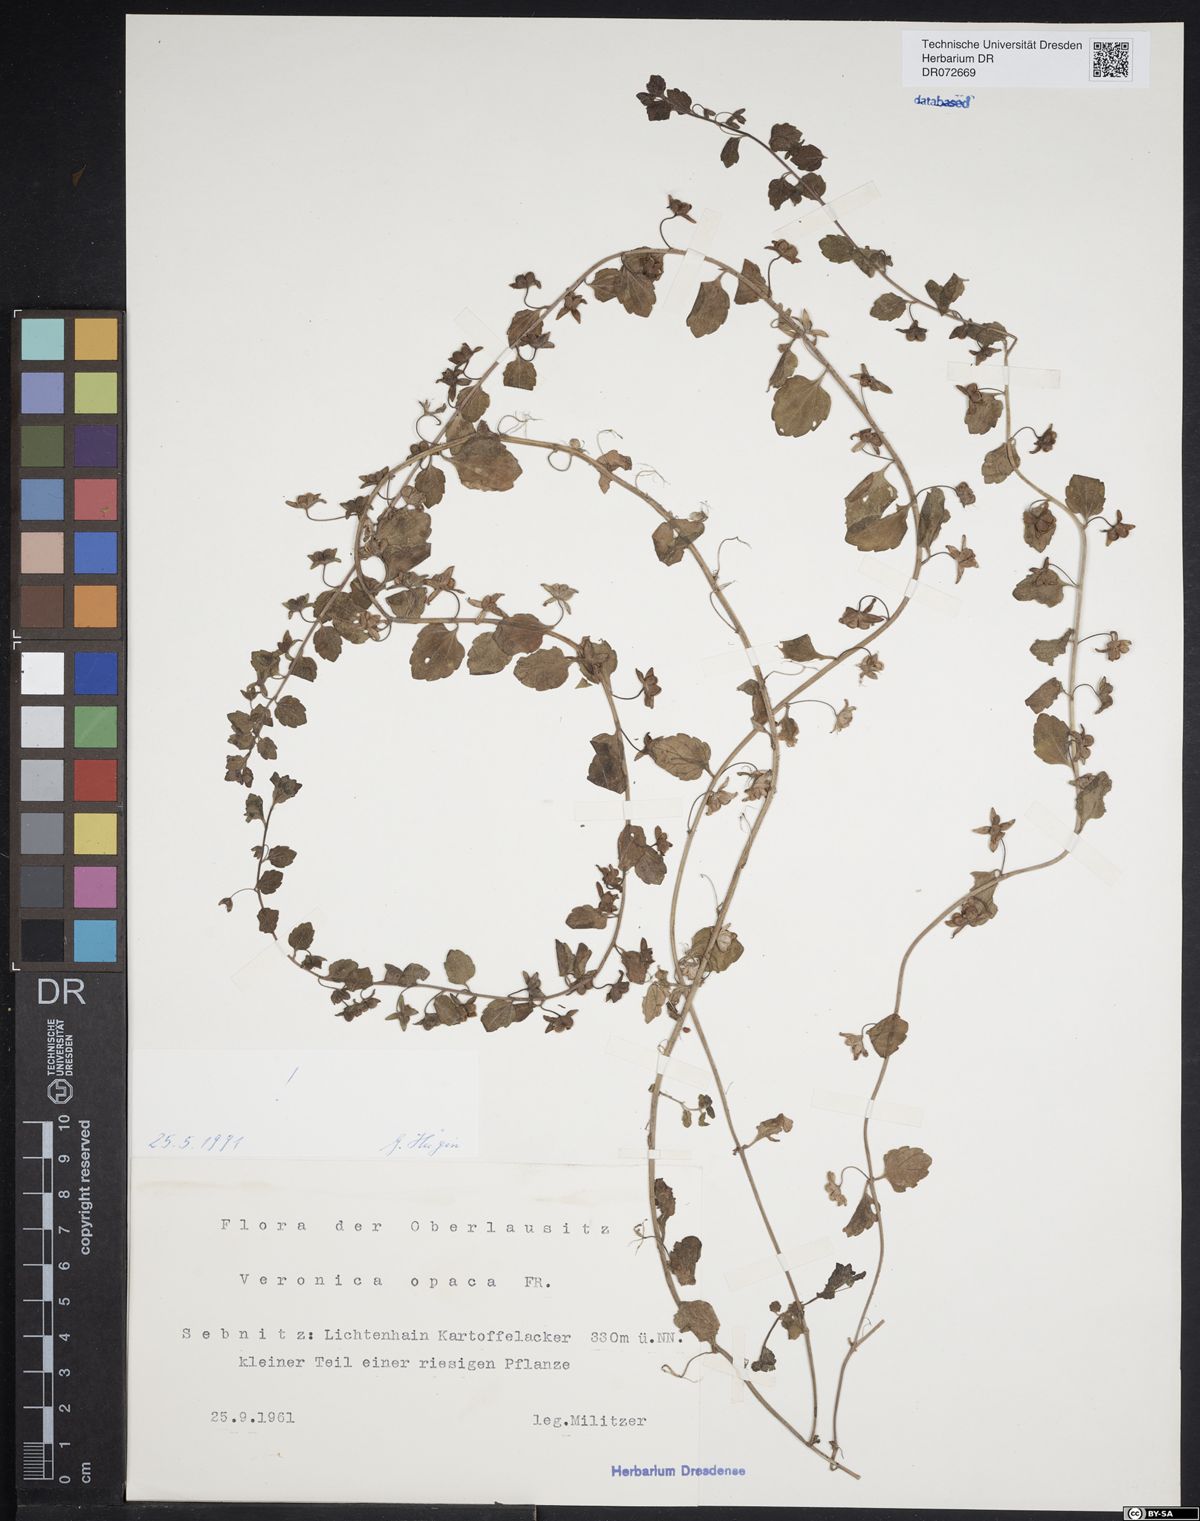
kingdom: Plantae
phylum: Tracheophyta
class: Magnoliopsida
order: Lamiales
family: Plantaginaceae
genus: Veronica
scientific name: Veronica opaca
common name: Dark speedwell
